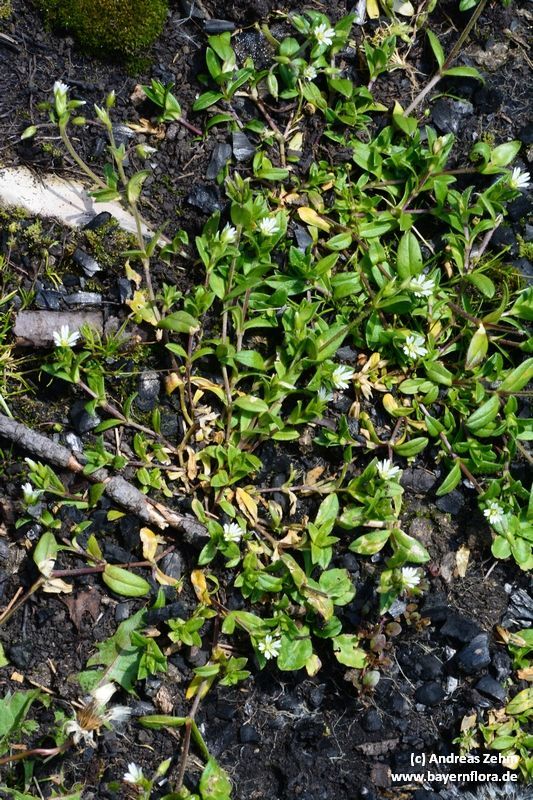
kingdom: Plantae
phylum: Tracheophyta
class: Magnoliopsida
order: Caryophyllales
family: Caryophyllaceae
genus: Cerastium
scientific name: Cerastium holosteoides
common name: Big chickweed
